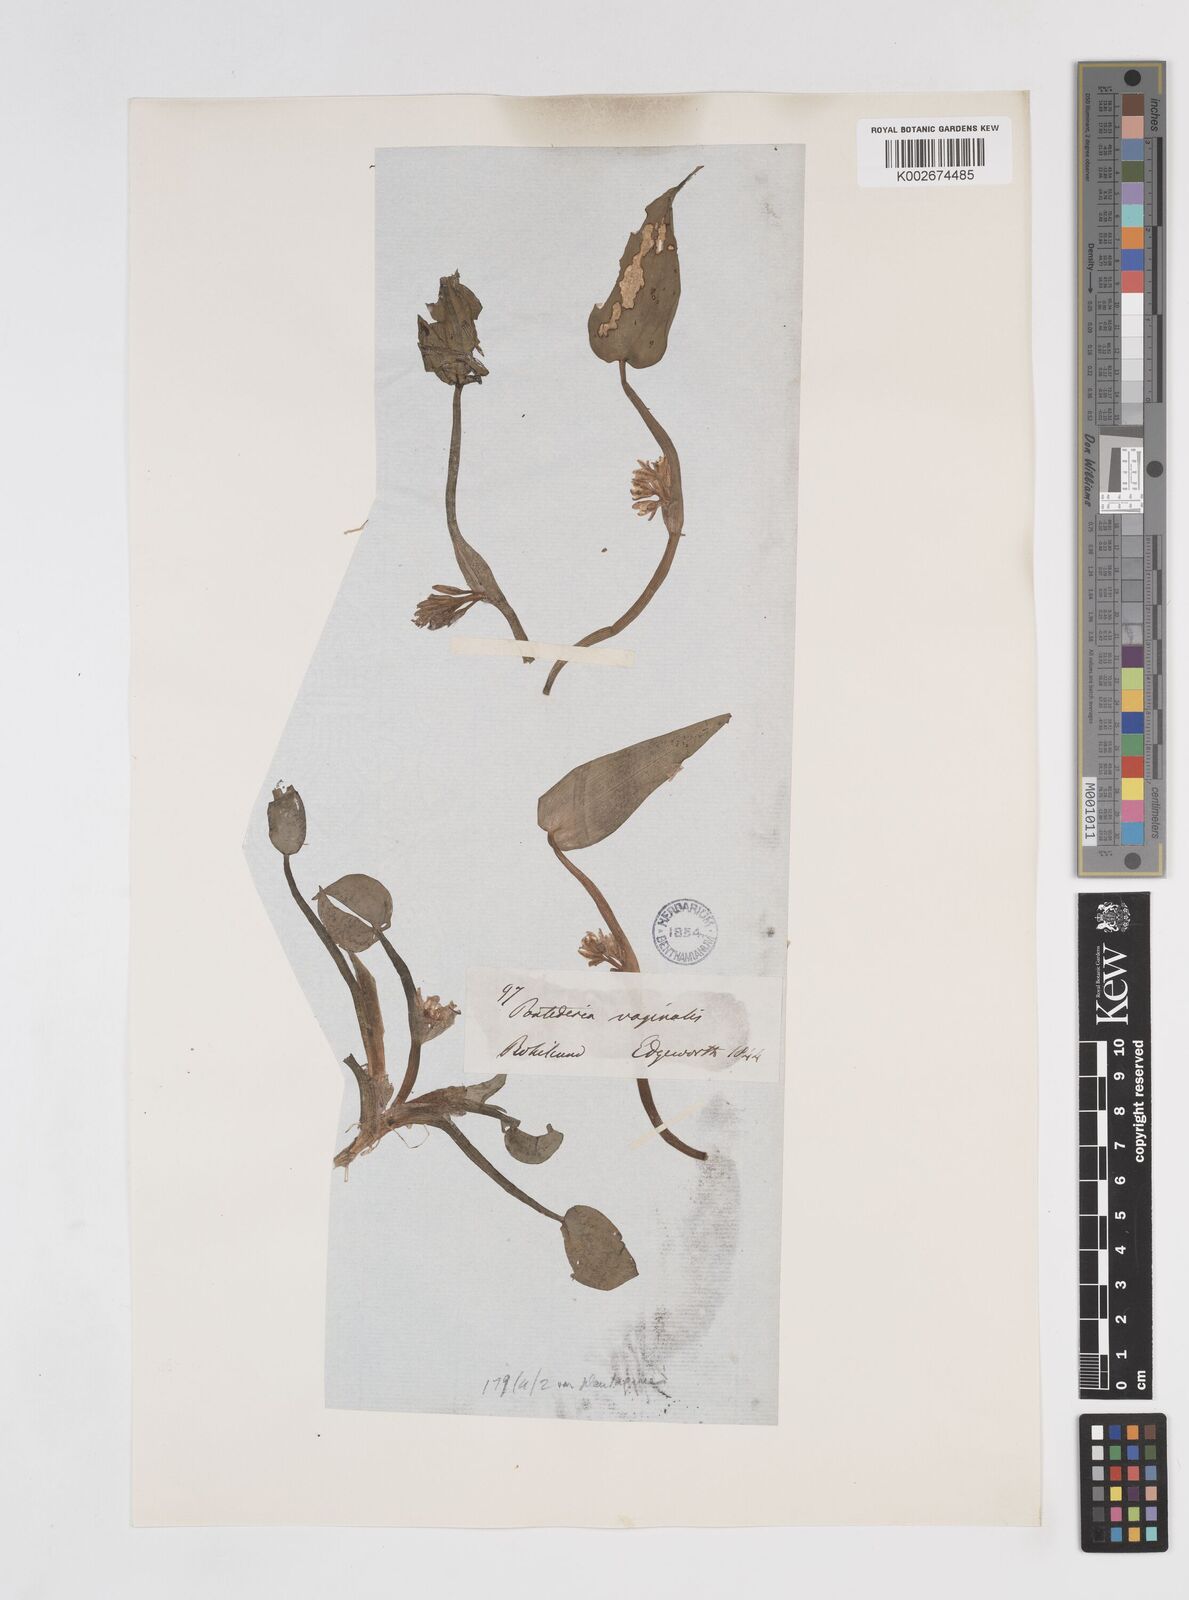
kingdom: Plantae
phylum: Tracheophyta
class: Liliopsida
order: Commelinales
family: Pontederiaceae
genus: Pontederia
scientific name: Pontederia vaginalis
